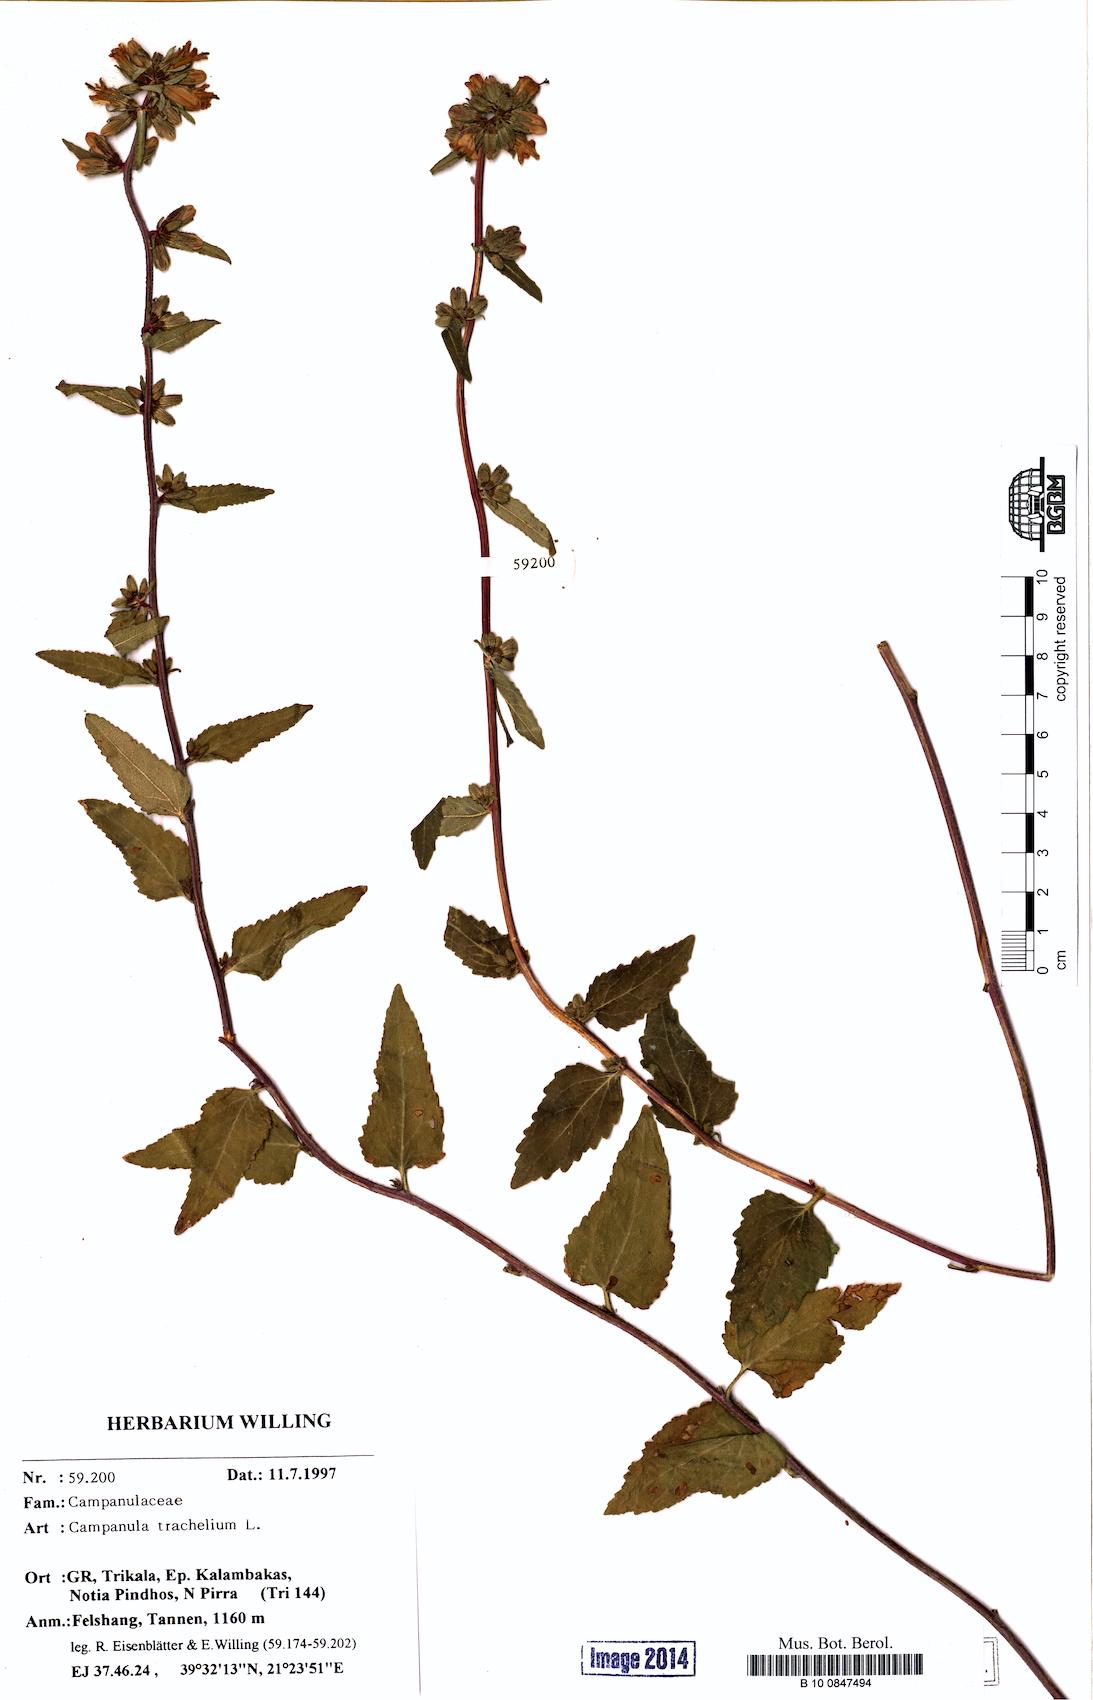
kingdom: Plantae
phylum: Tracheophyta
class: Magnoliopsida
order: Asterales
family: Campanulaceae
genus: Campanula
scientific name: Campanula trachelium
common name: Nettle-leaved bellflower
